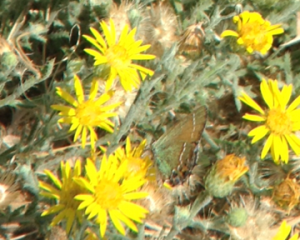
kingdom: Animalia
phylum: Arthropoda
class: Insecta
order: Lepidoptera
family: Lycaenidae
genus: Mitoura
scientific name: Mitoura gryneus
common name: Juniper Hairstreak
